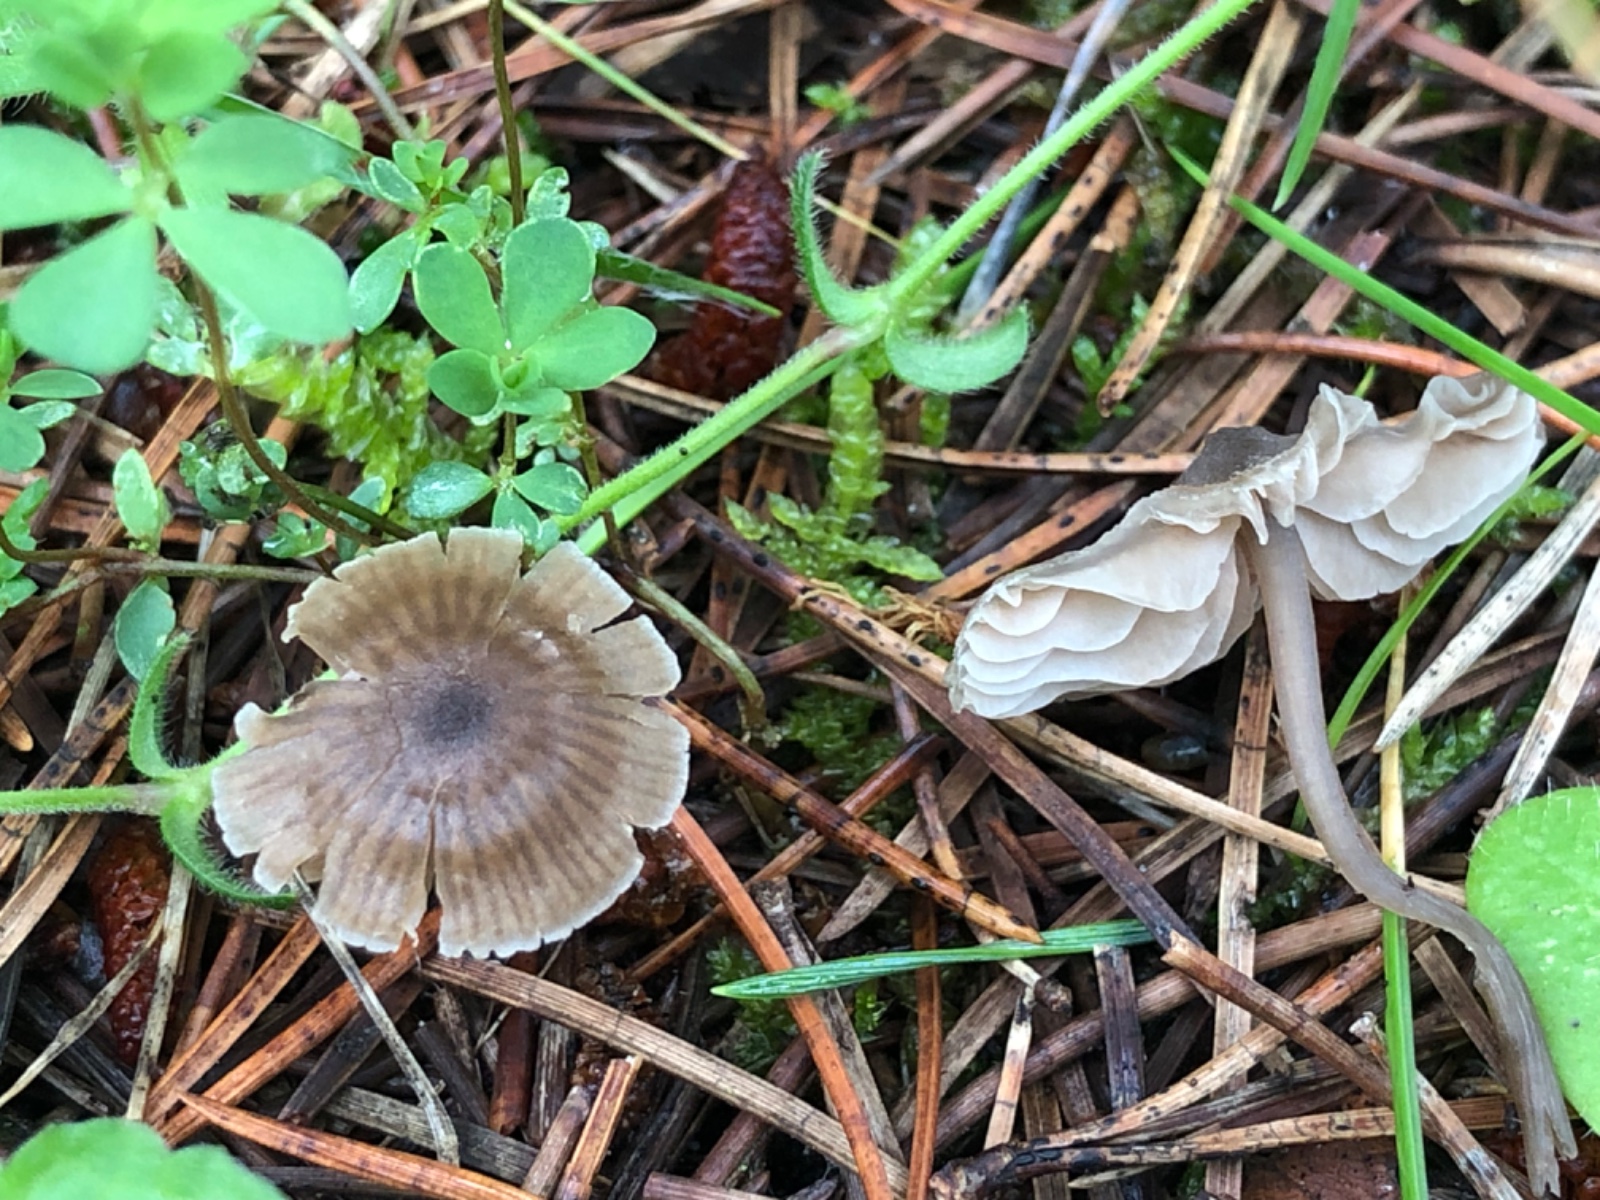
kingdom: Fungi
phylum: Basidiomycota
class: Agaricomycetes
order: Agaricales
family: Entolomataceae
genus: Entoloma
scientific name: Entoloma minutum
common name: liden rødblad
